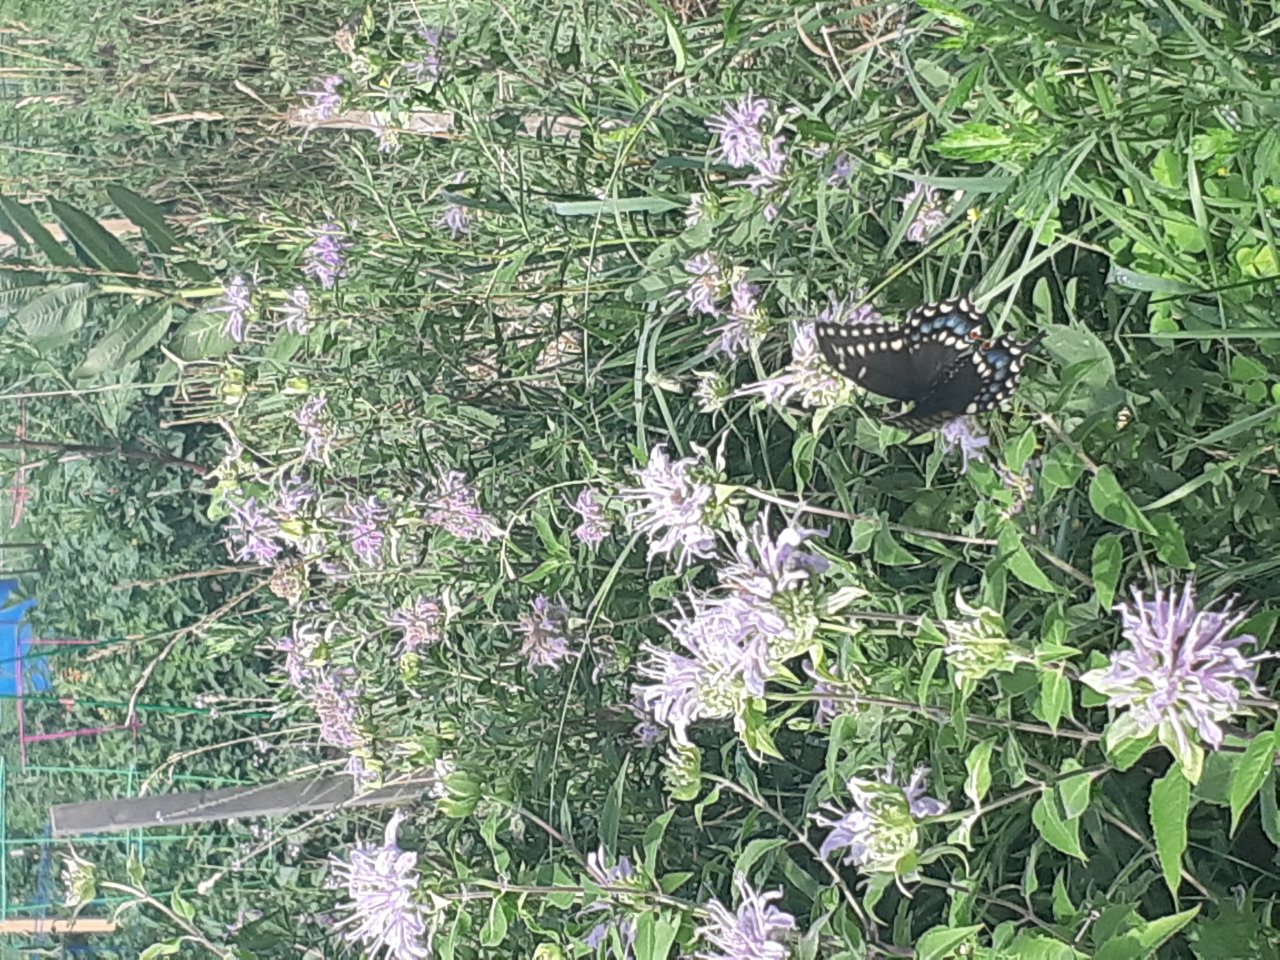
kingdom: Animalia
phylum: Arthropoda
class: Insecta
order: Lepidoptera
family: Papilionidae
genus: Papilio
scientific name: Papilio polyxenes
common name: Black Swallowtail
